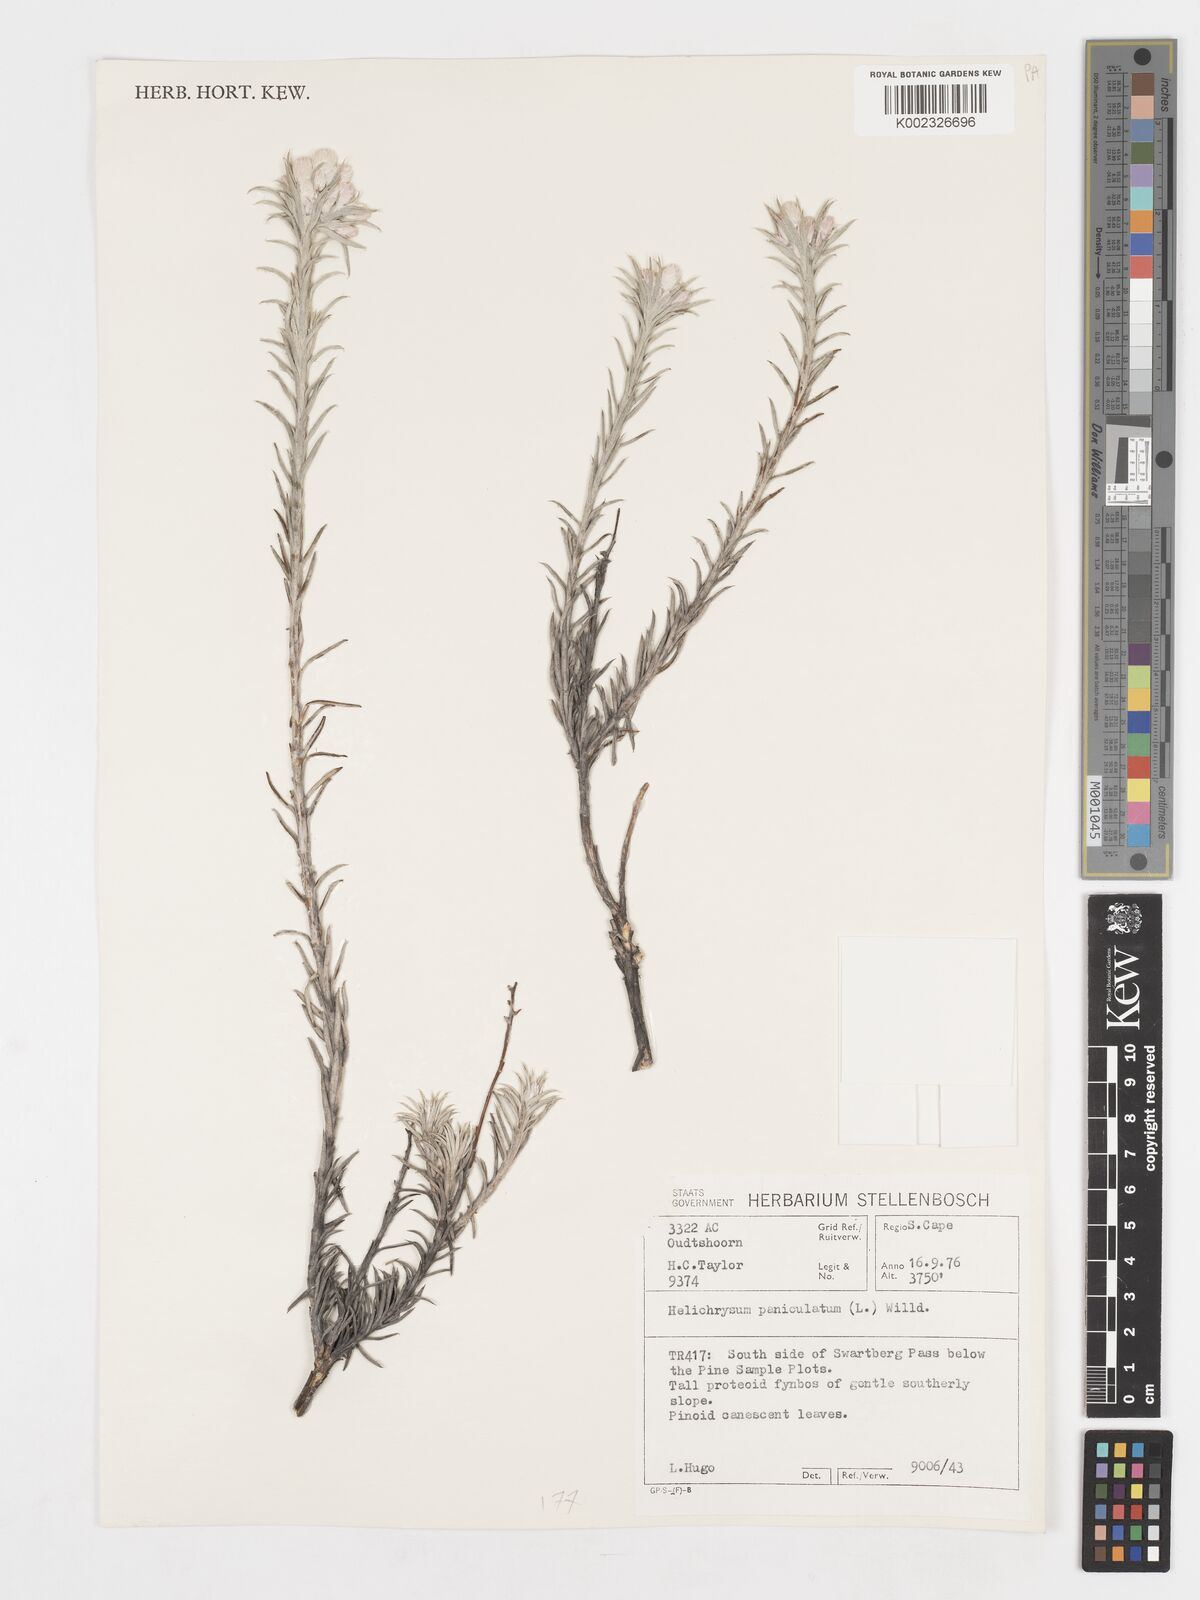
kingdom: Plantae
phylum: Tracheophyta
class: Magnoliopsida
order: Asterales
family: Asteraceae
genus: Achyranthemum
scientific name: Achyranthemum paniculatum
